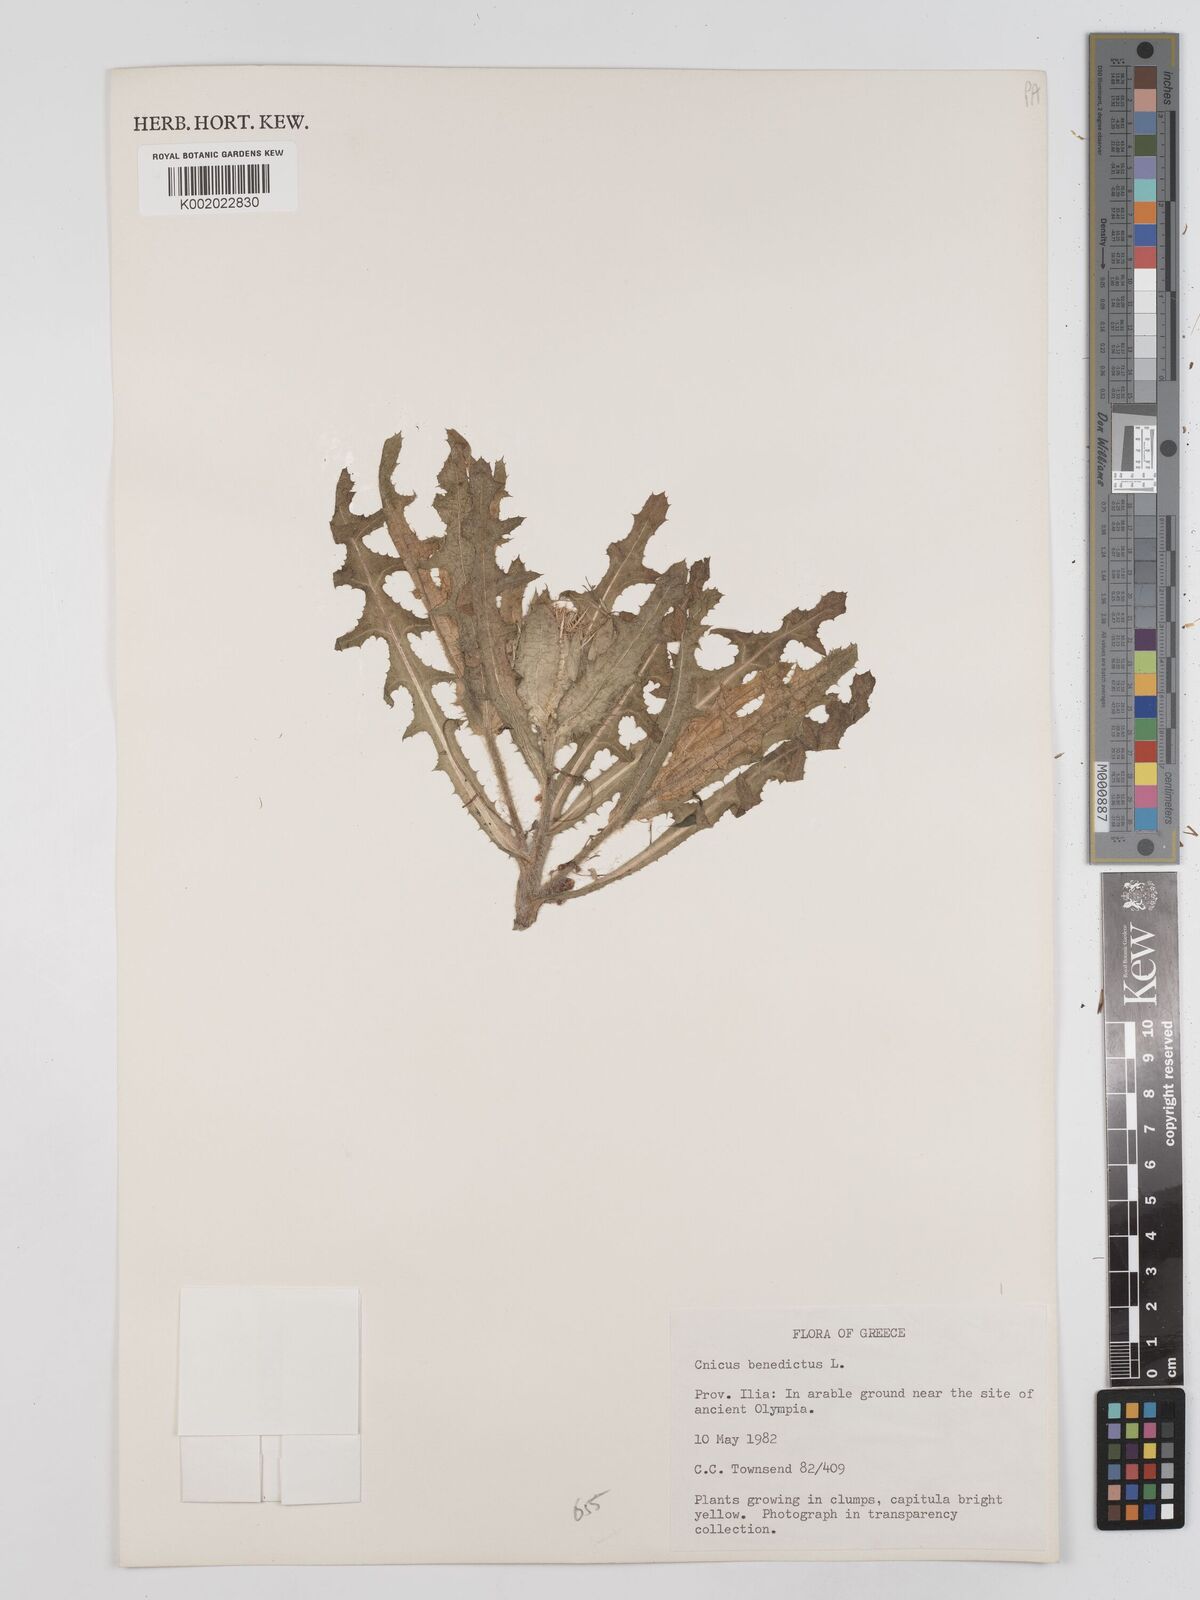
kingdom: Plantae
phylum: Tracheophyta
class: Magnoliopsida
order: Asterales
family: Asteraceae
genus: Centaurea
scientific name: Centaurea benedicta
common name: Blessed thistle
